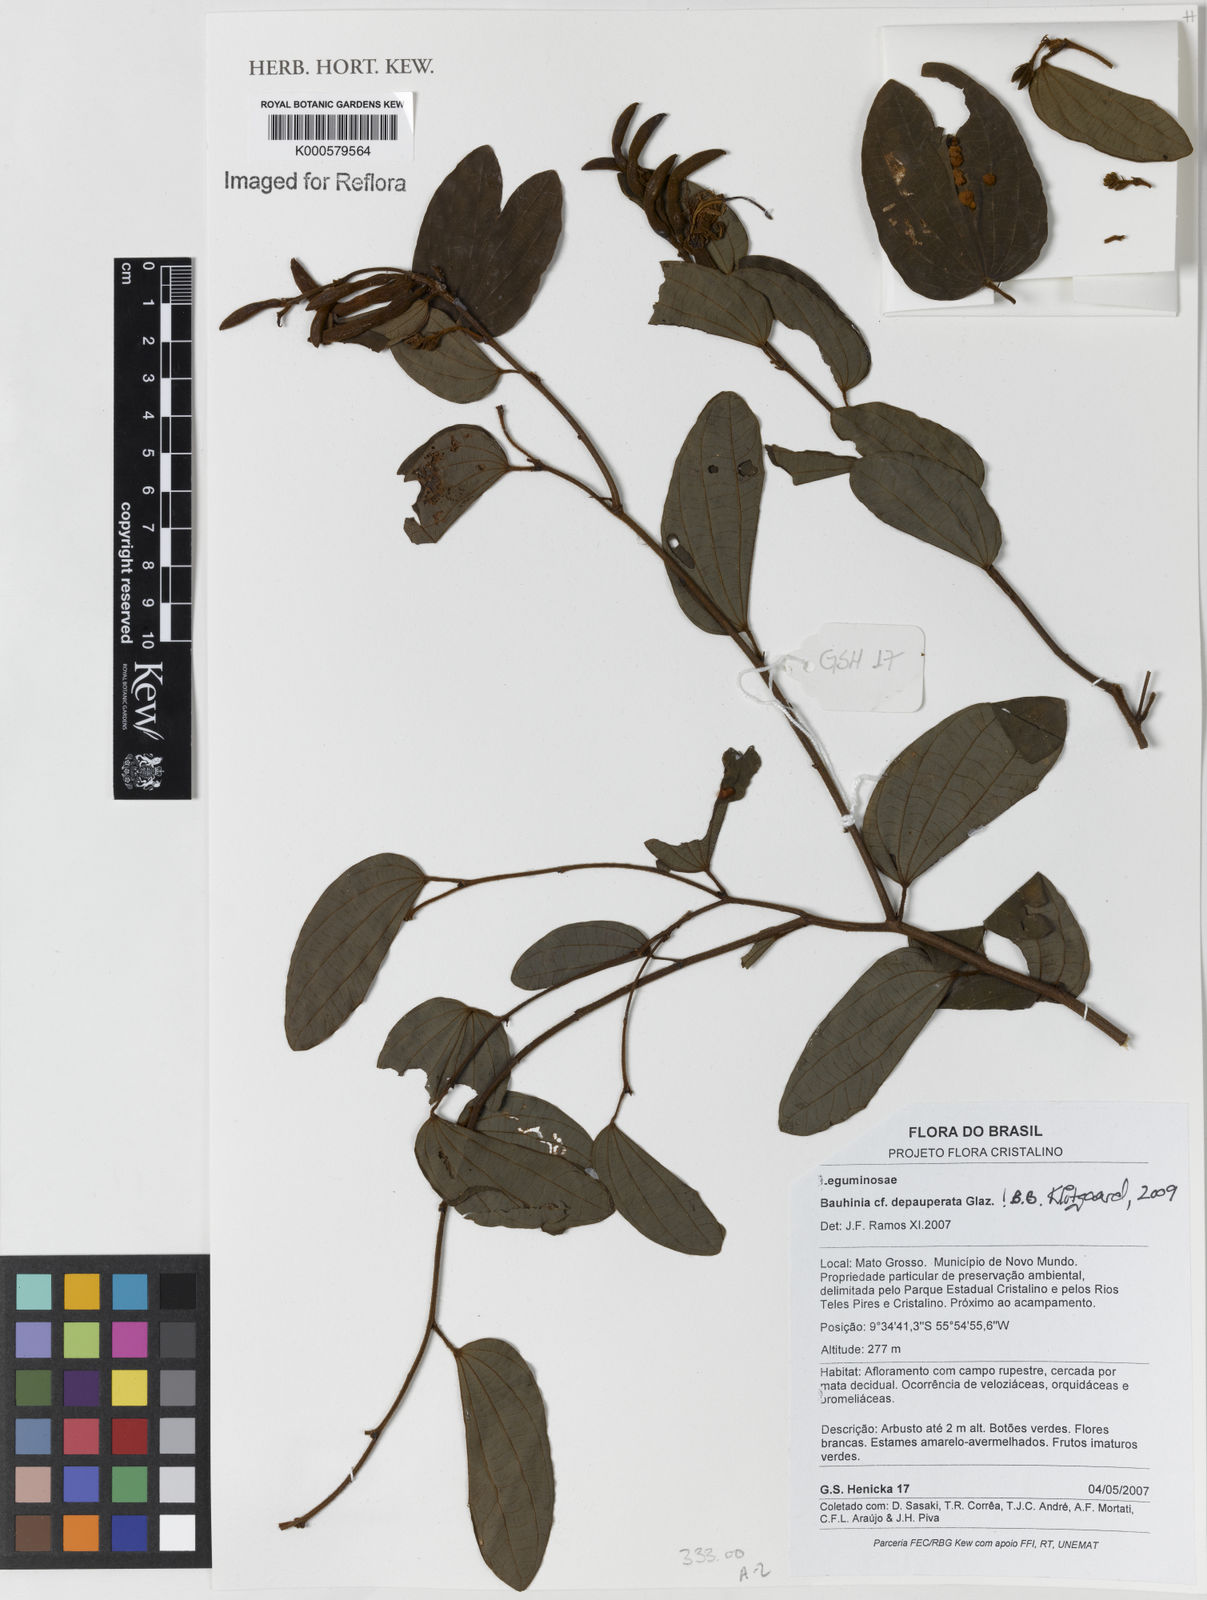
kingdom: Plantae
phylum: Tracheophyta
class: Magnoliopsida
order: Fabales
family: Fabaceae
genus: Bauhinia
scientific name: Bauhinia depauperata
